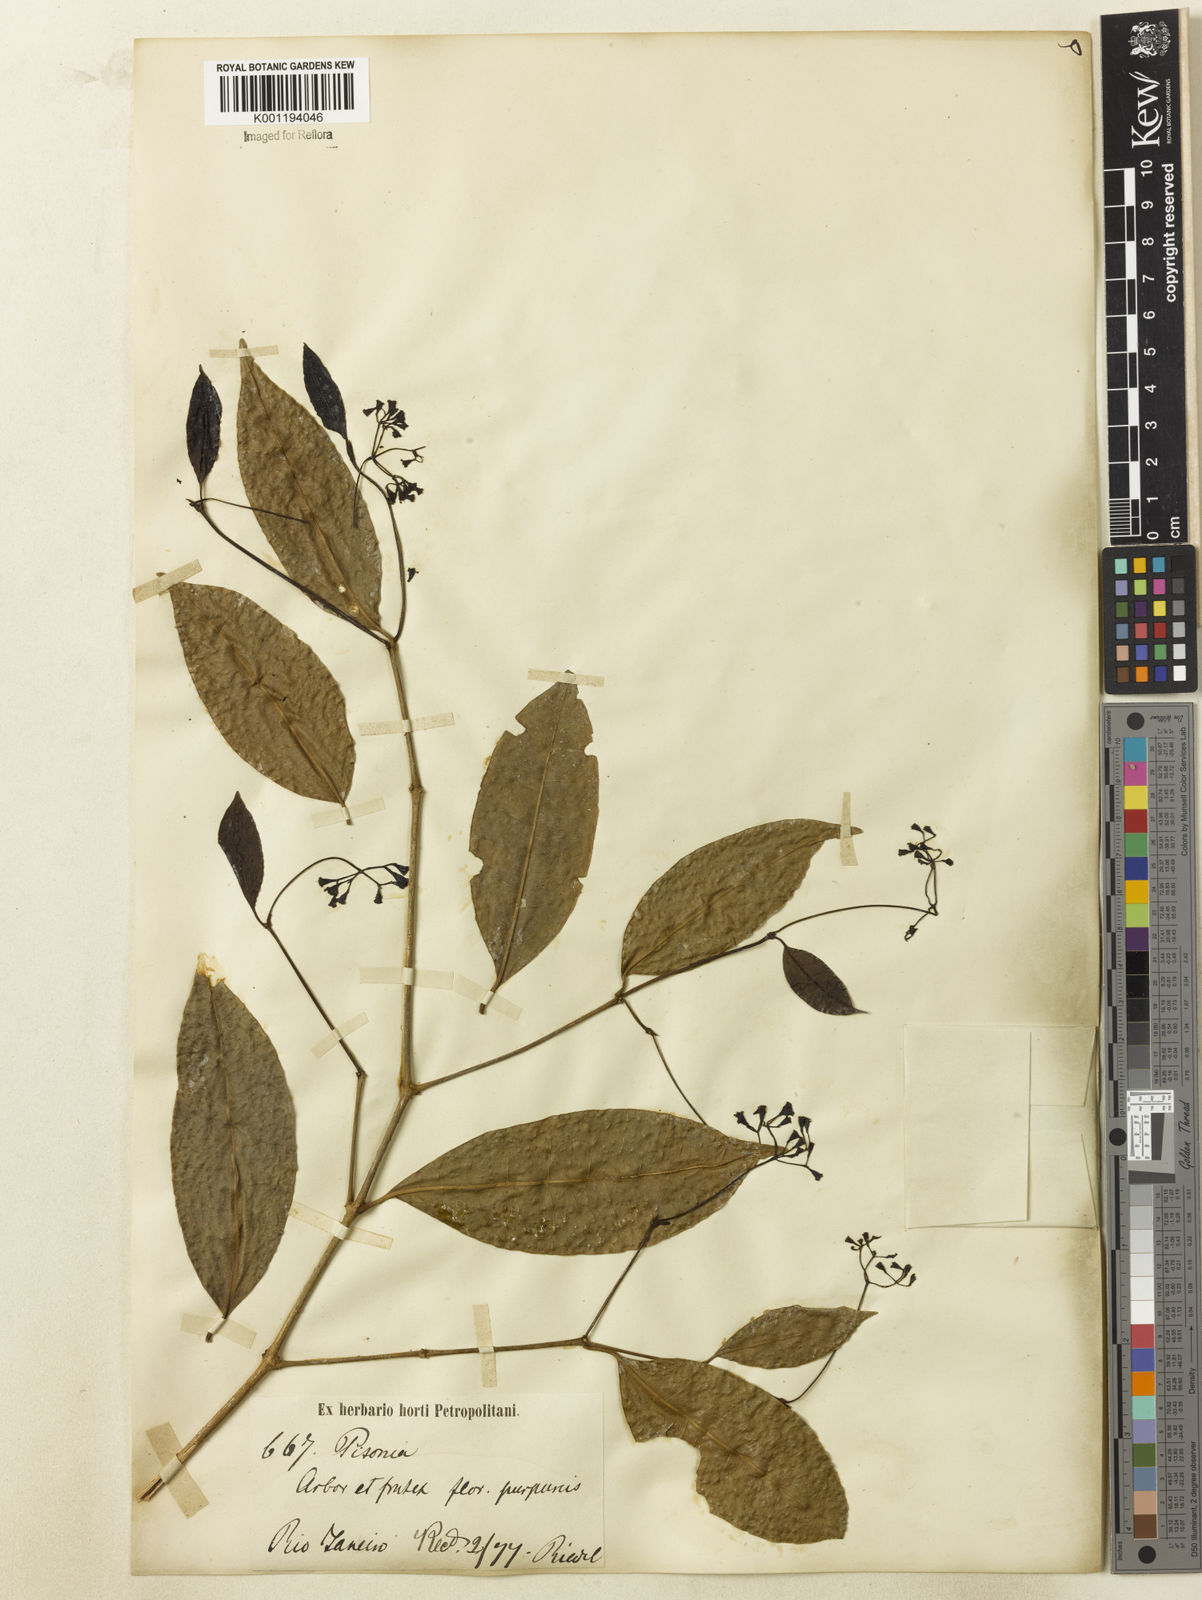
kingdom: Plantae
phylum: Tracheophyta
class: Magnoliopsida
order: Caryophyllales
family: Nyctaginaceae
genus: Guapira
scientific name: Guapira
